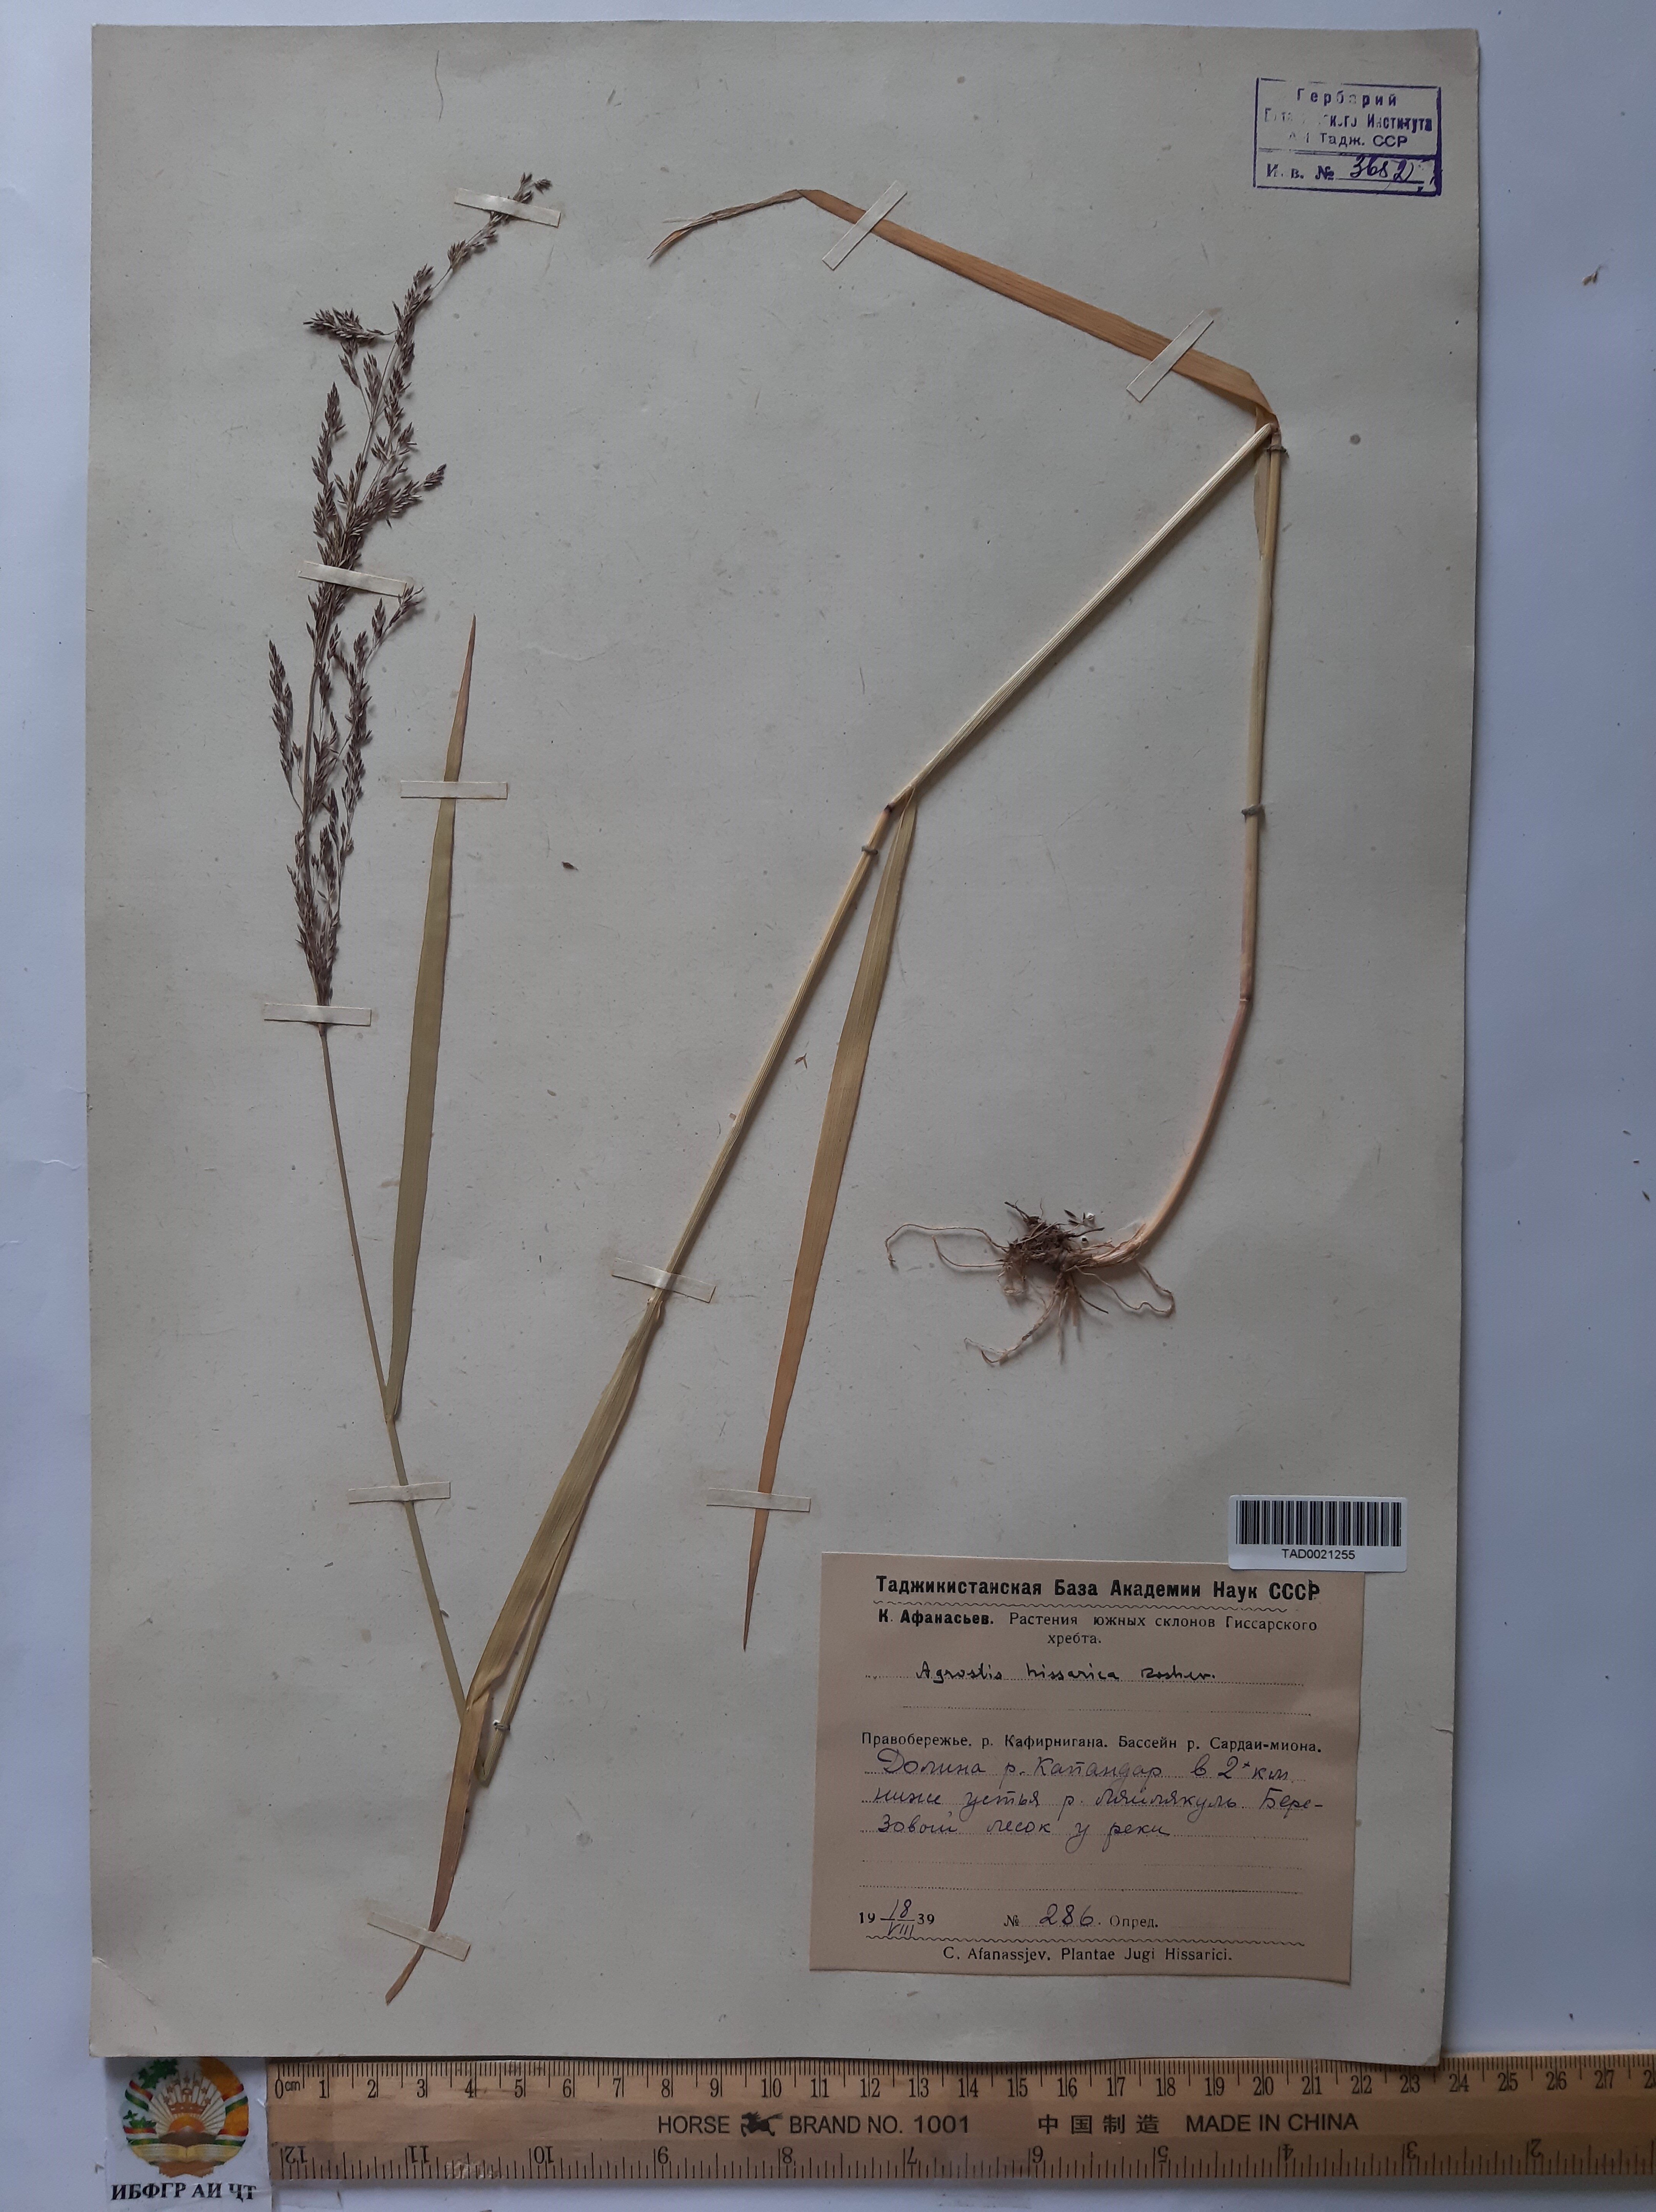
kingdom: Plantae
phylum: Tracheophyta
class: Liliopsida
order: Poales
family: Poaceae
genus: Poa
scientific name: Poa nemoralis
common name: Wood bluegrass
